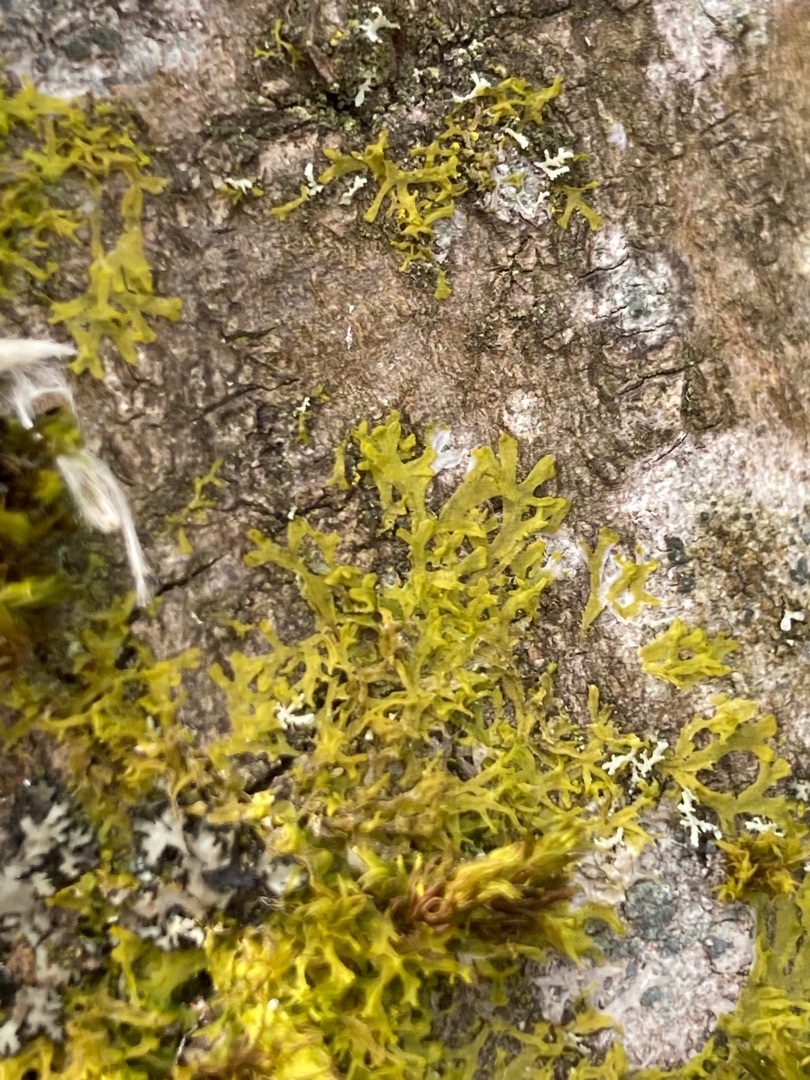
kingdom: Plantae
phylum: Marchantiophyta
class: Jungermanniopsida
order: Metzgeriales
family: Aneuraceae
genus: Riccardia
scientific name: Riccardia palmata
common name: Blågrøn gaffelløv
